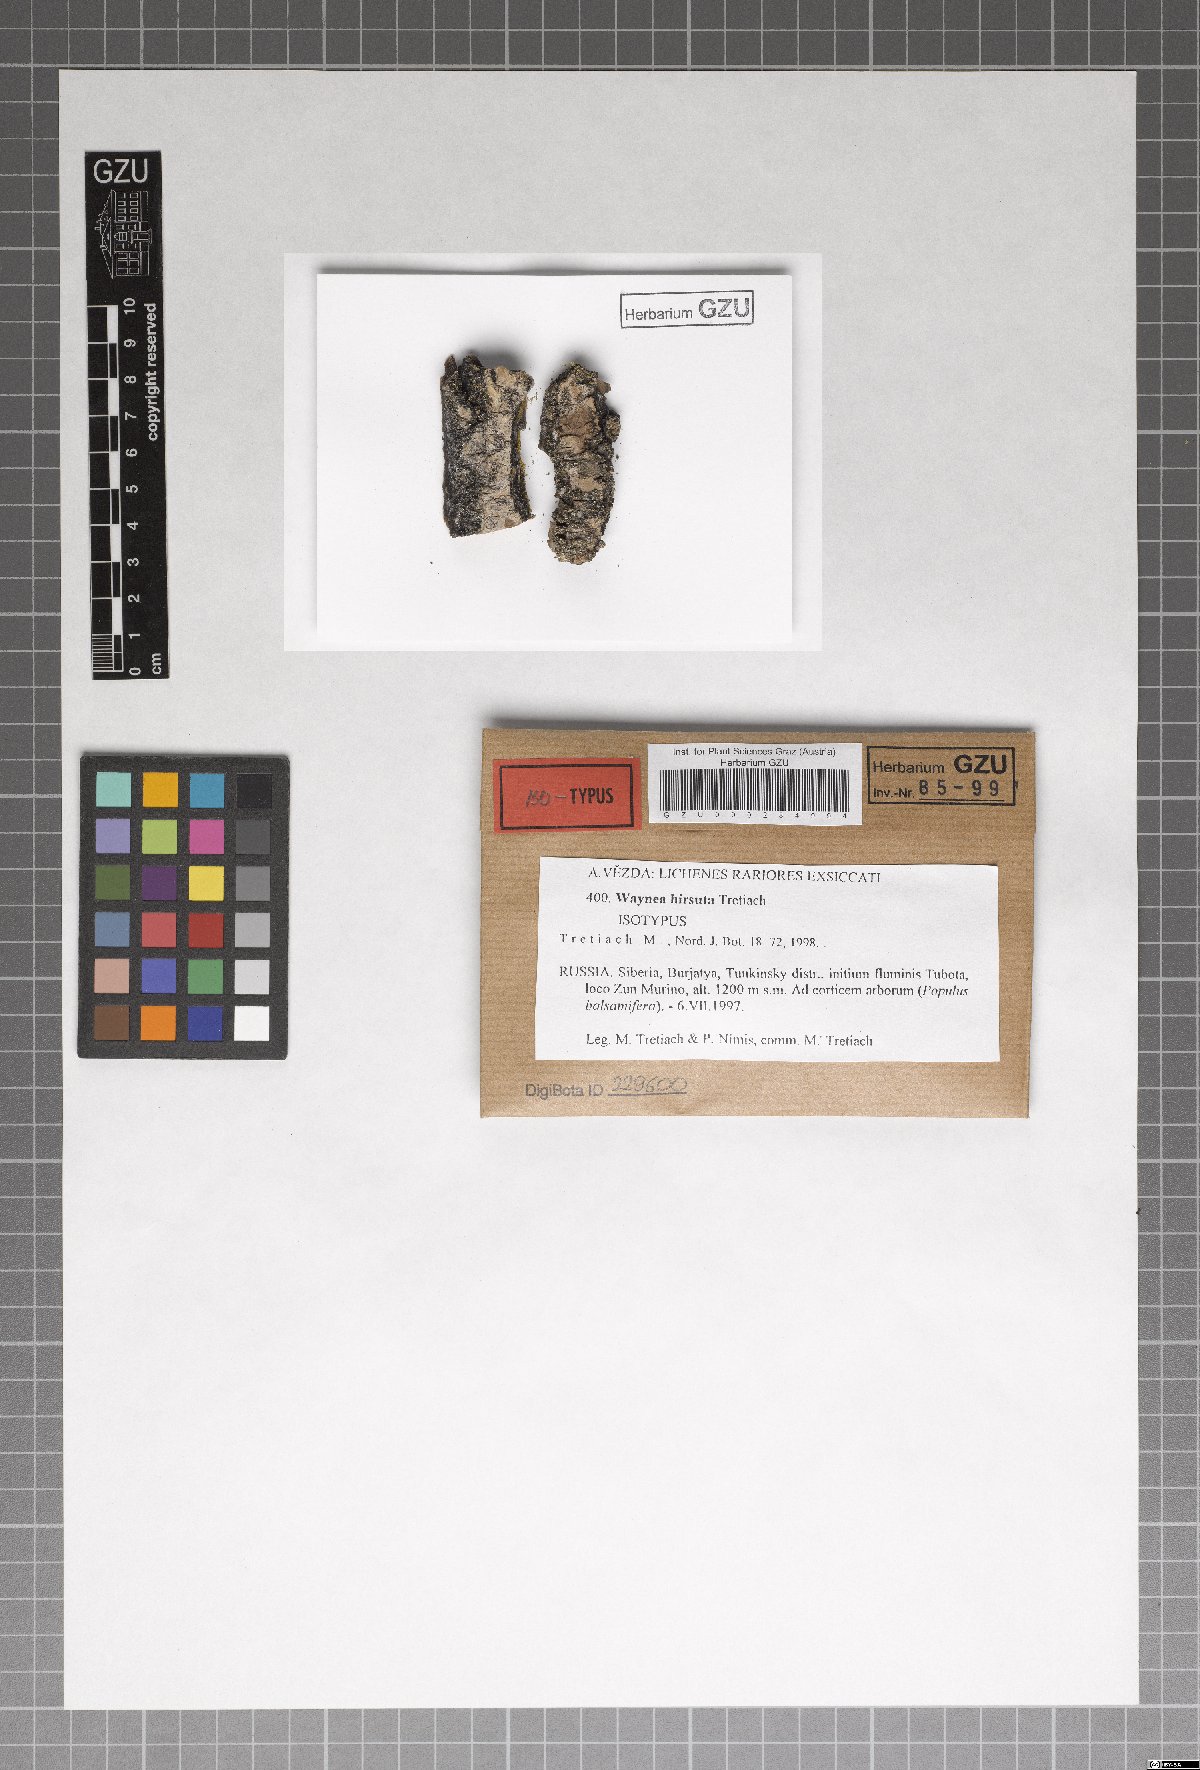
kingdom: Fungi
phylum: Ascomycota
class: Lecanoromycetes
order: Lecanorales
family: Ramalinaceae
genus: Waynea
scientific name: Waynea
